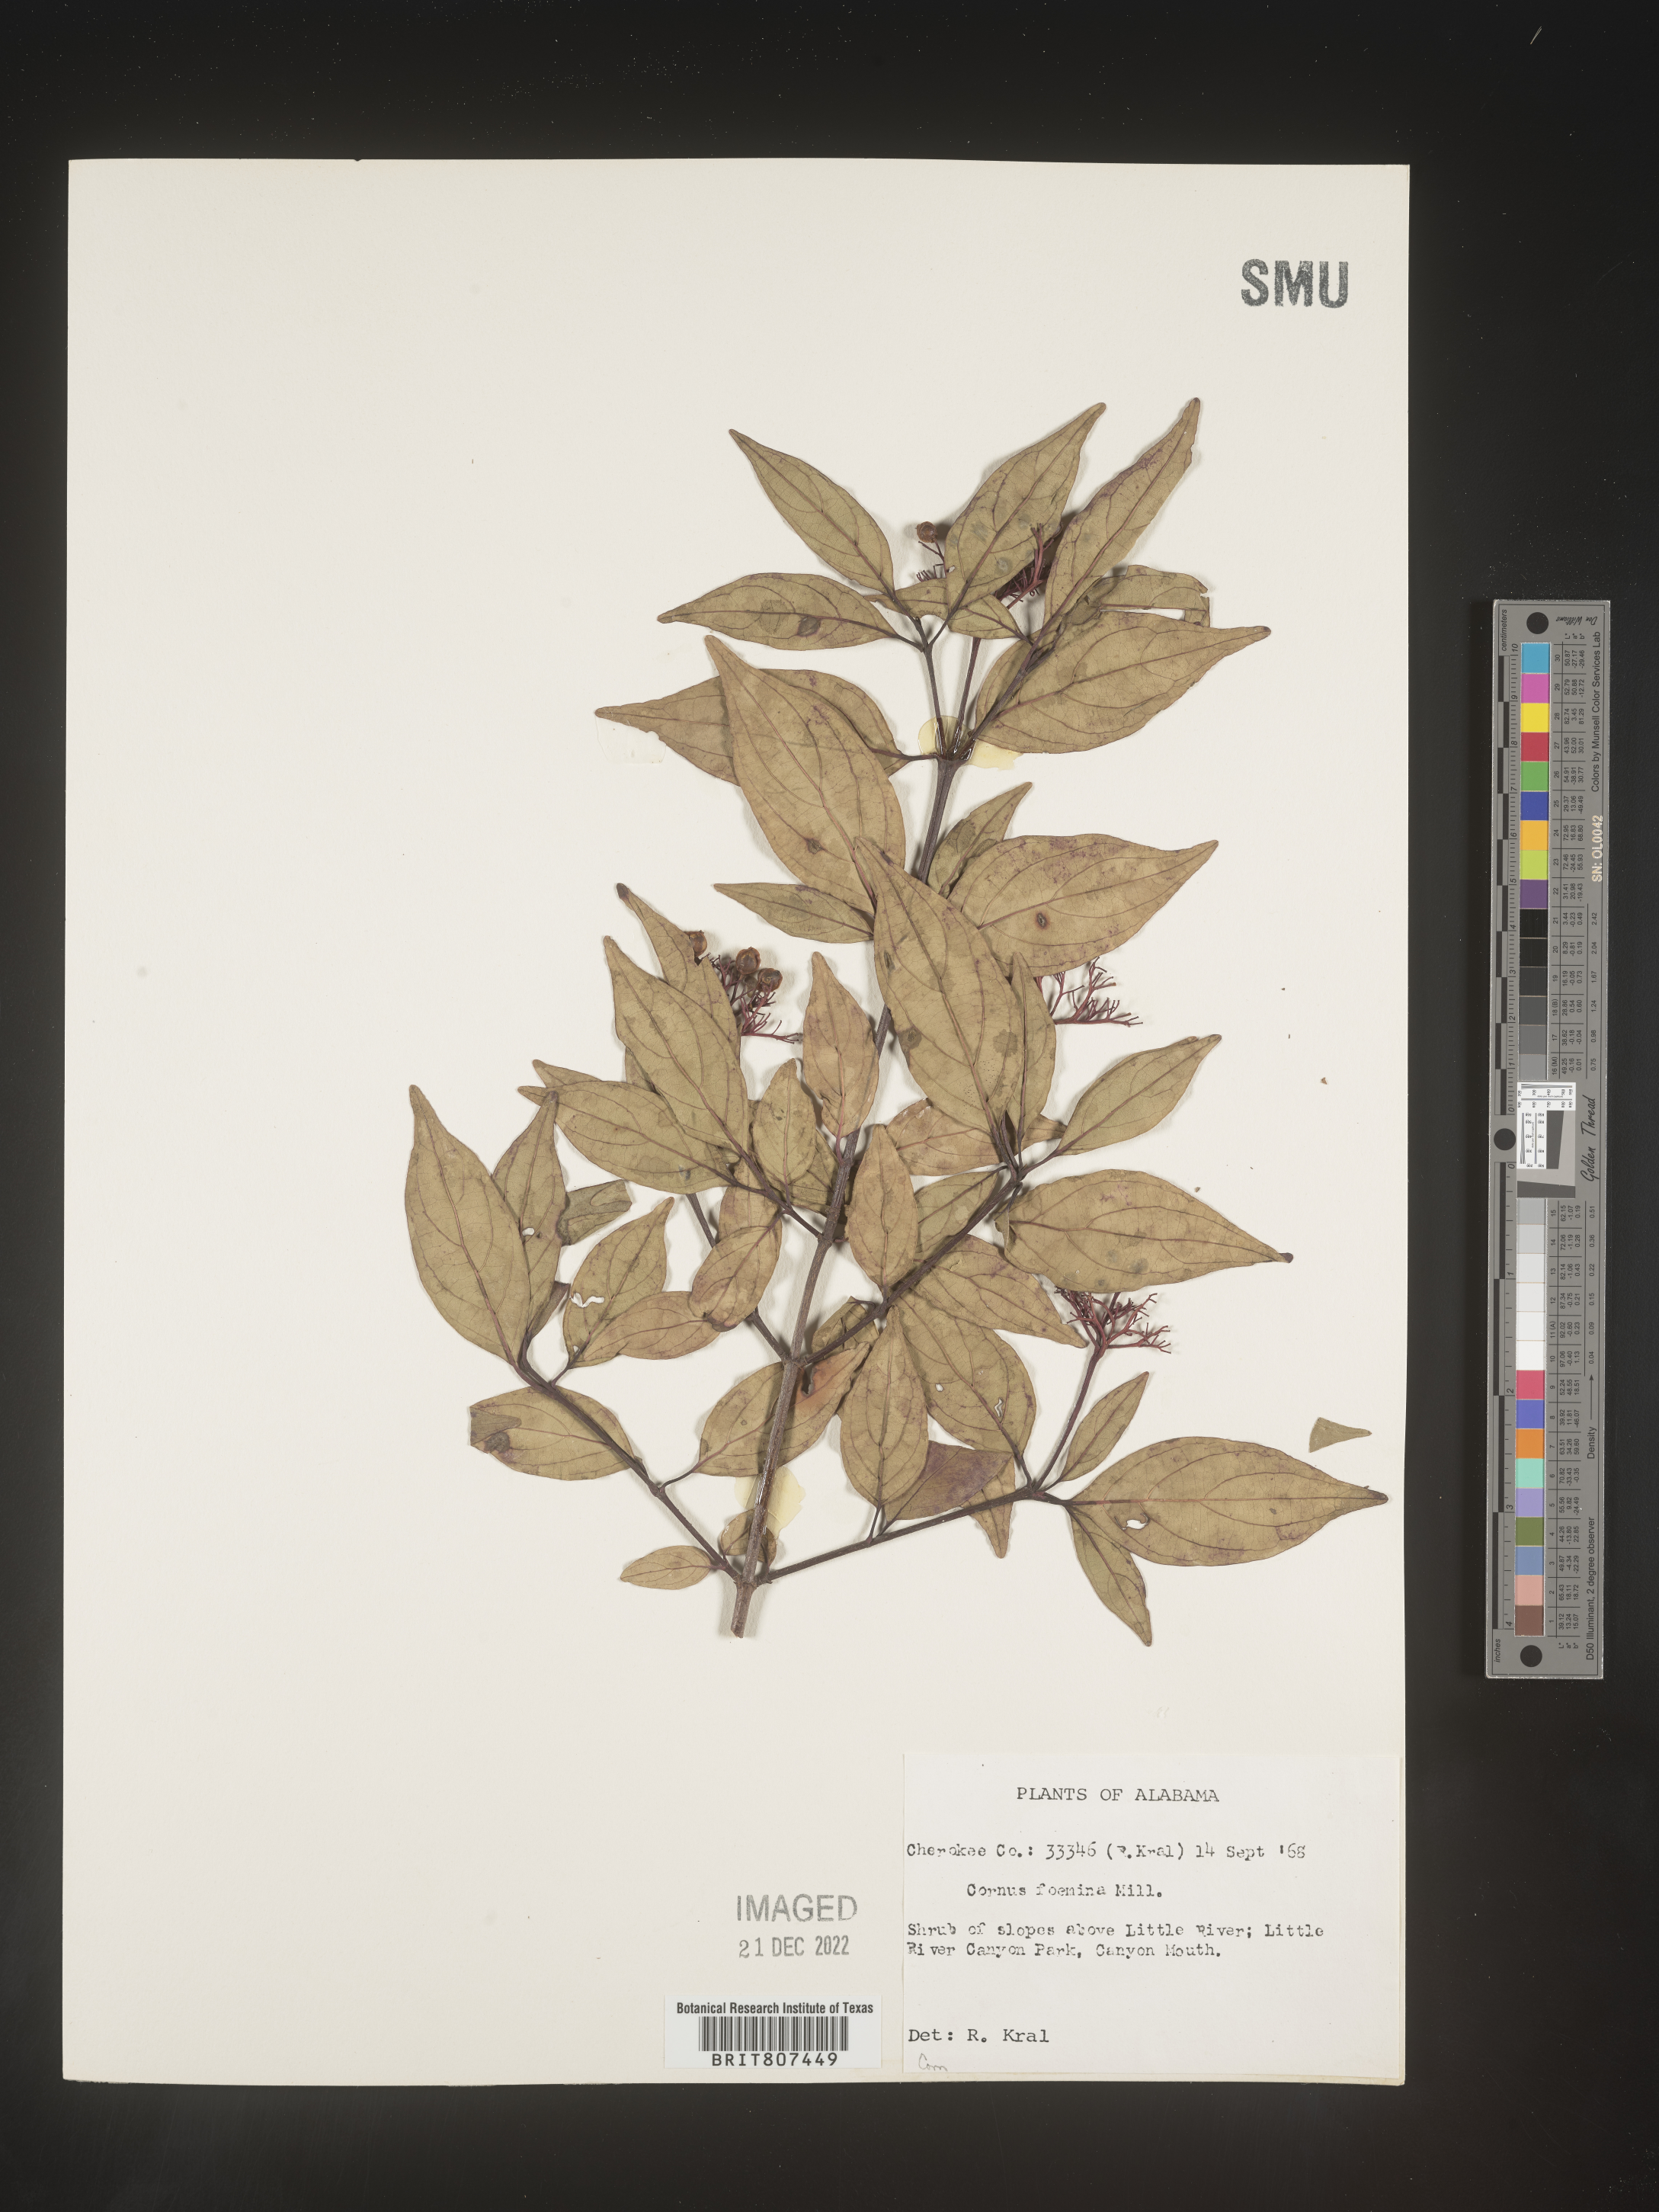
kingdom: Plantae
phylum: Tracheophyta
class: Magnoliopsida
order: Cornales
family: Cornaceae
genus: Cornus
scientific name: Cornus foemina
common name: Swamp dogwood
